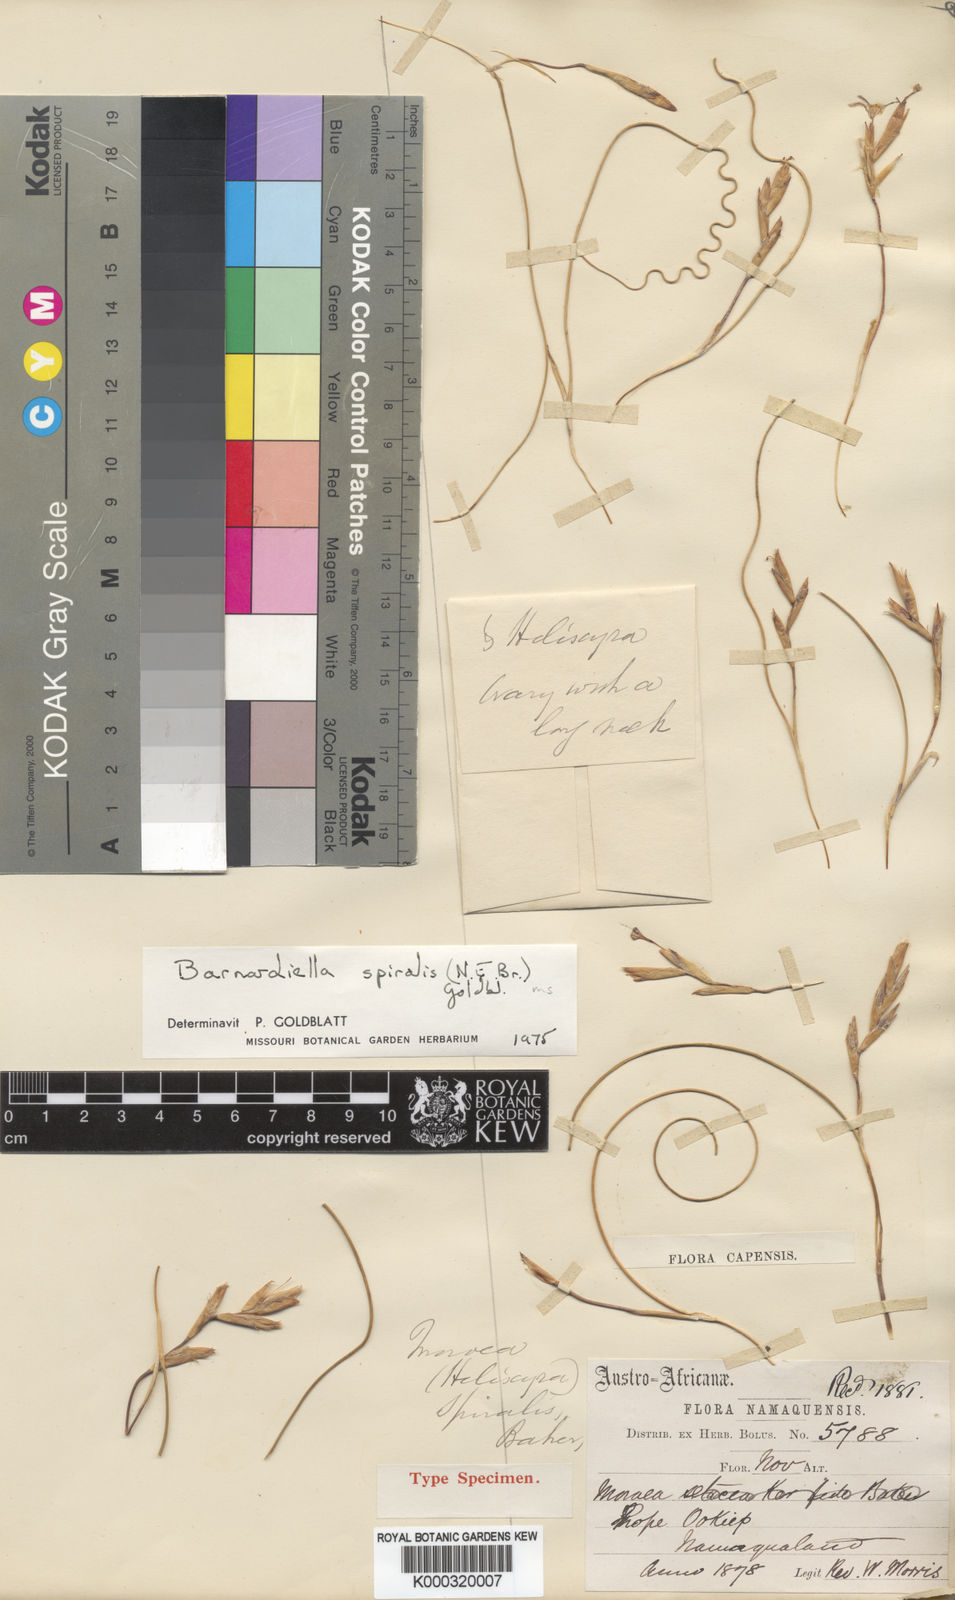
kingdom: Plantae
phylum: Tracheophyta
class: Liliopsida
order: Asparagales
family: Iridaceae
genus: Moraea
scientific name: Moraea herrei
